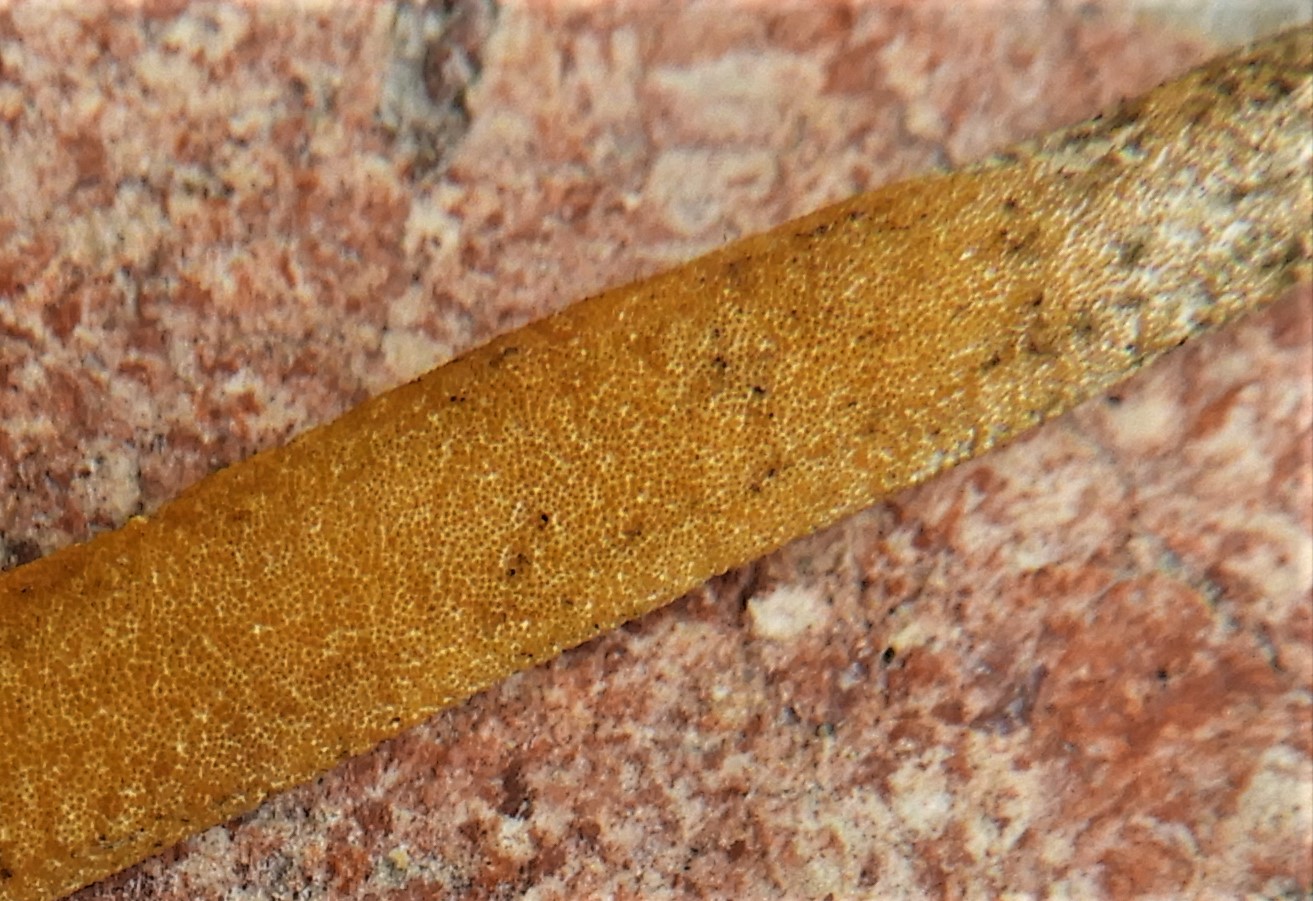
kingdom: Fungi
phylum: Ascomycota
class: Sordariomycetes
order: Hypocreales
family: Clavicipitaceae
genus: Epichloe
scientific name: Epichloe typhina
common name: almindelig kernerør
